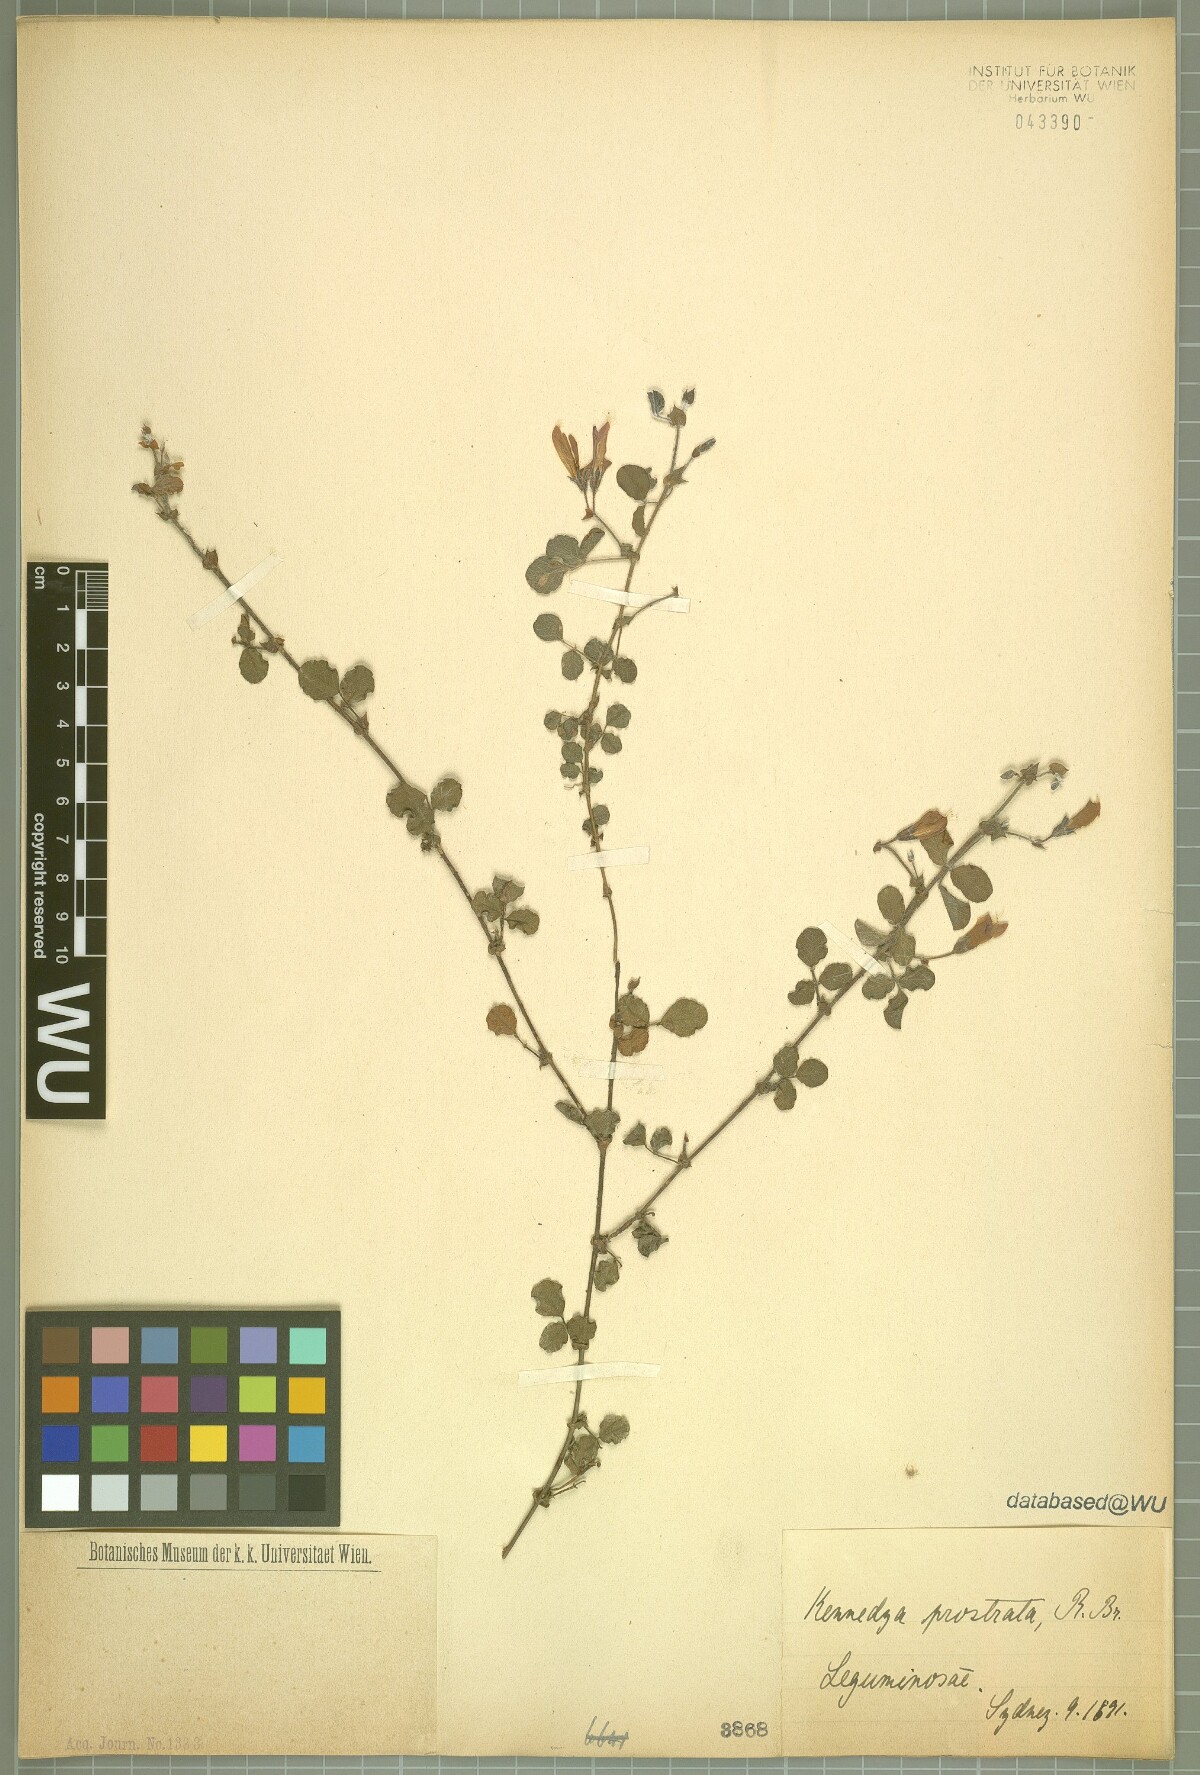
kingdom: Plantae
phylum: Tracheophyta
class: Magnoliopsida
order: Fabales
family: Fabaceae
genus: Kennedia
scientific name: Kennedia prostrata
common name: Running-postman
